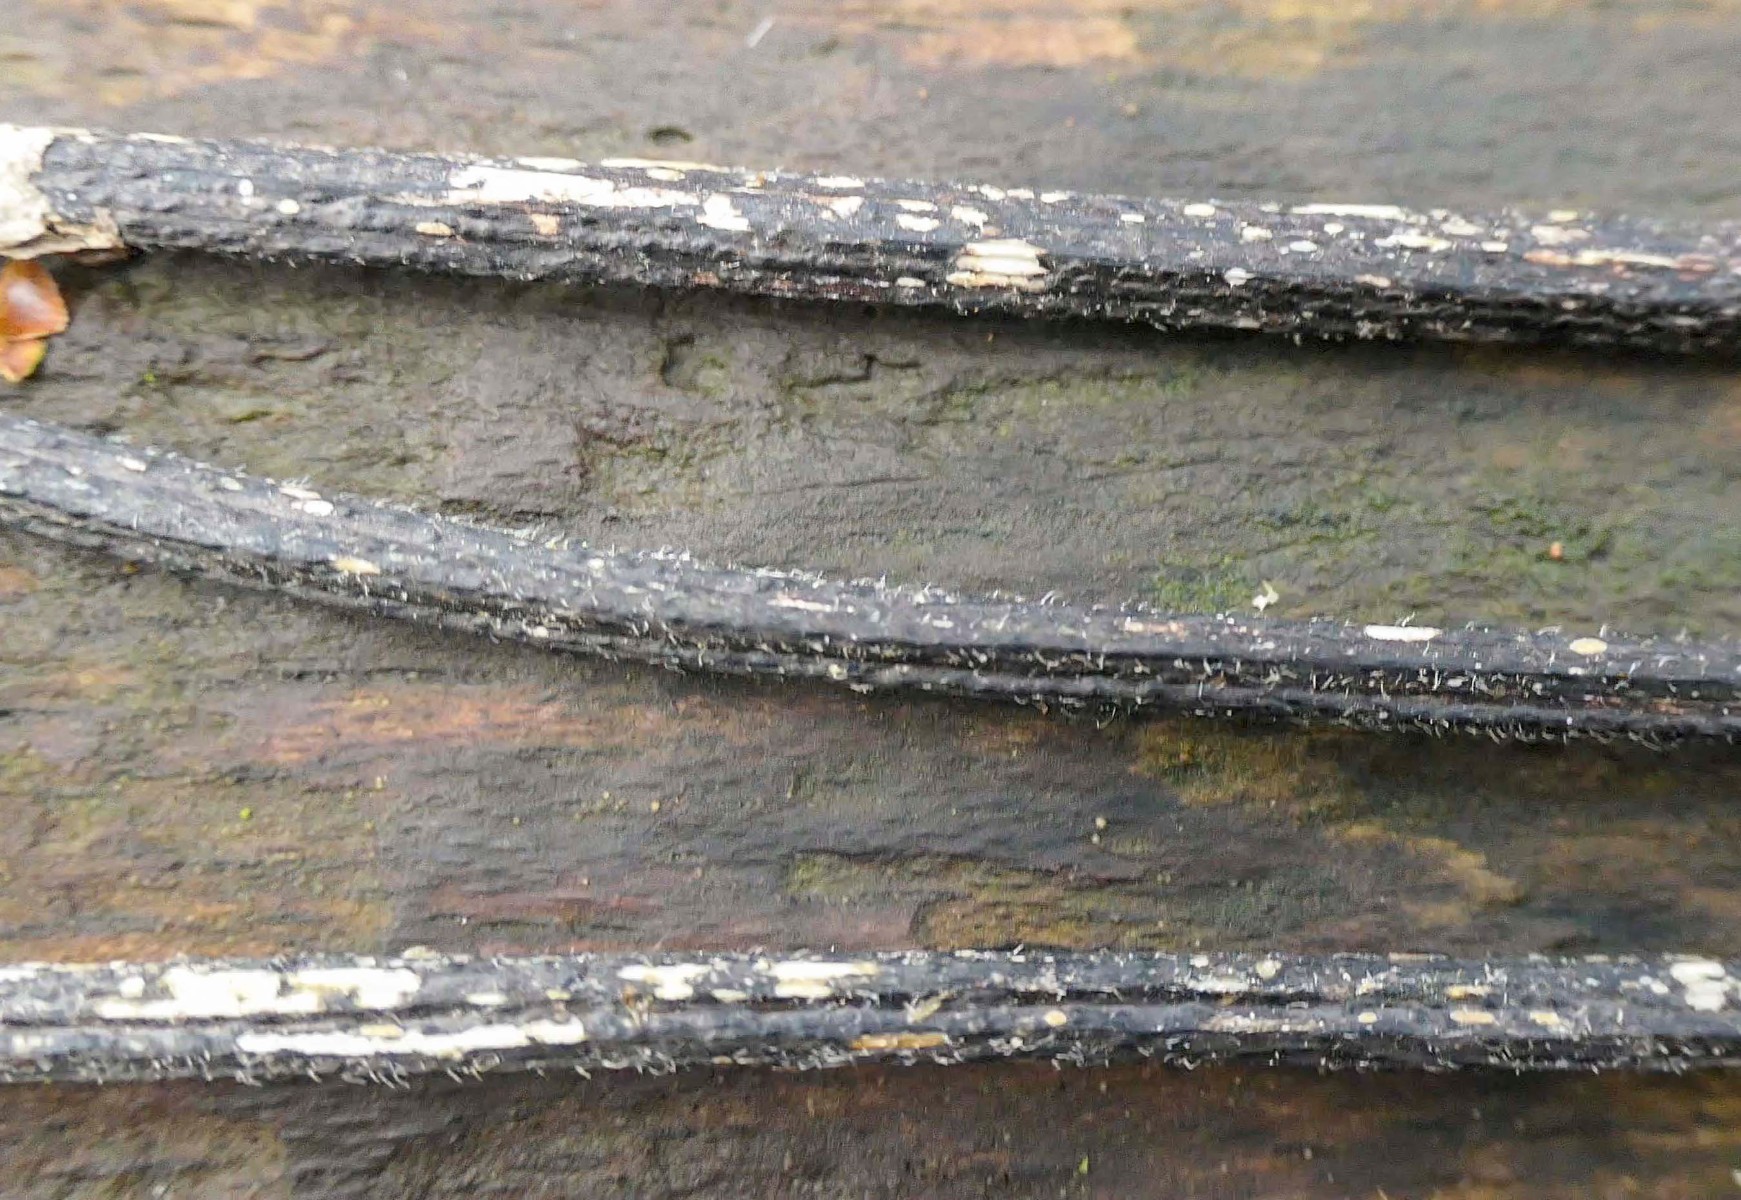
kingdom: Fungi
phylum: Ascomycota
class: Sordariomycetes
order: Diaporthales
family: Diaporthaceae
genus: Diaporthopsis
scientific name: Diaporthopsis urticae
